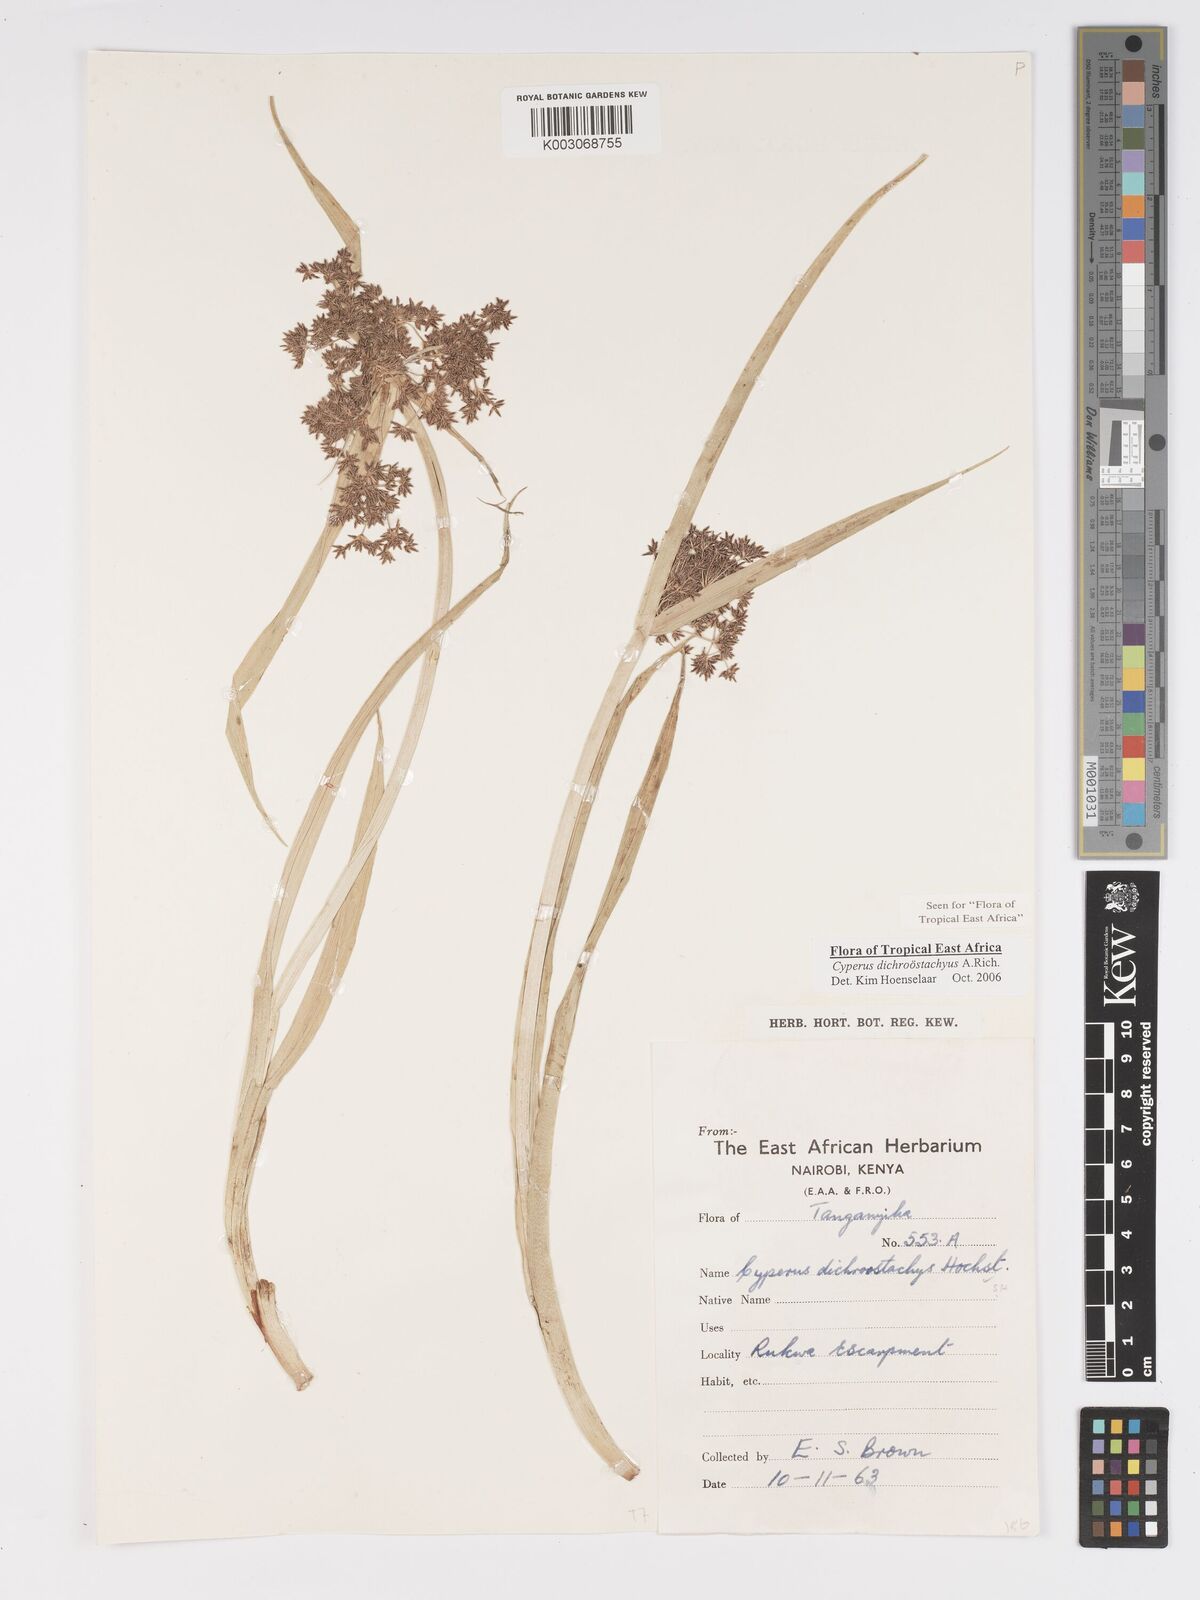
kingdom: Plantae
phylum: Tracheophyta
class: Liliopsida
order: Poales
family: Cyperaceae
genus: Cyperus
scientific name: Cyperus dichrostachyus
